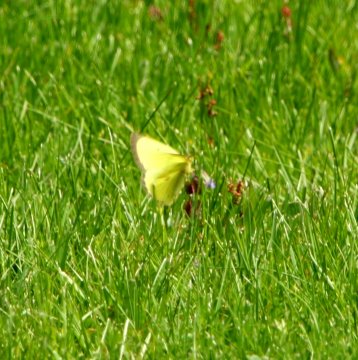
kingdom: Animalia
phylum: Arthropoda
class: Insecta
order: Lepidoptera
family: Pieridae
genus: Colias
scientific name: Colias philodice
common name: Clouded Sulphur
